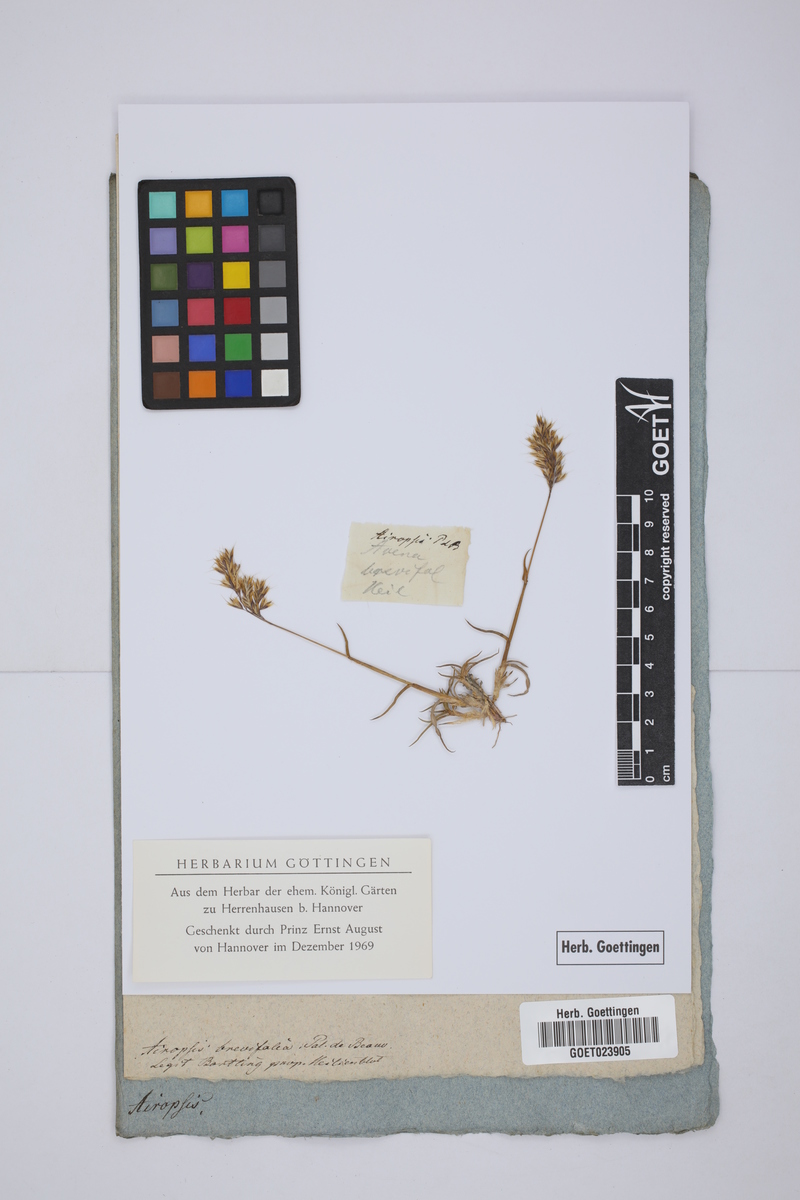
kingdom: Plantae
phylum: Tracheophyta
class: Liliopsida
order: Poales
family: Poaceae
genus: Puccinellia
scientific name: Puccinellia rupestris
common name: Stiff saltmarsh-grass
